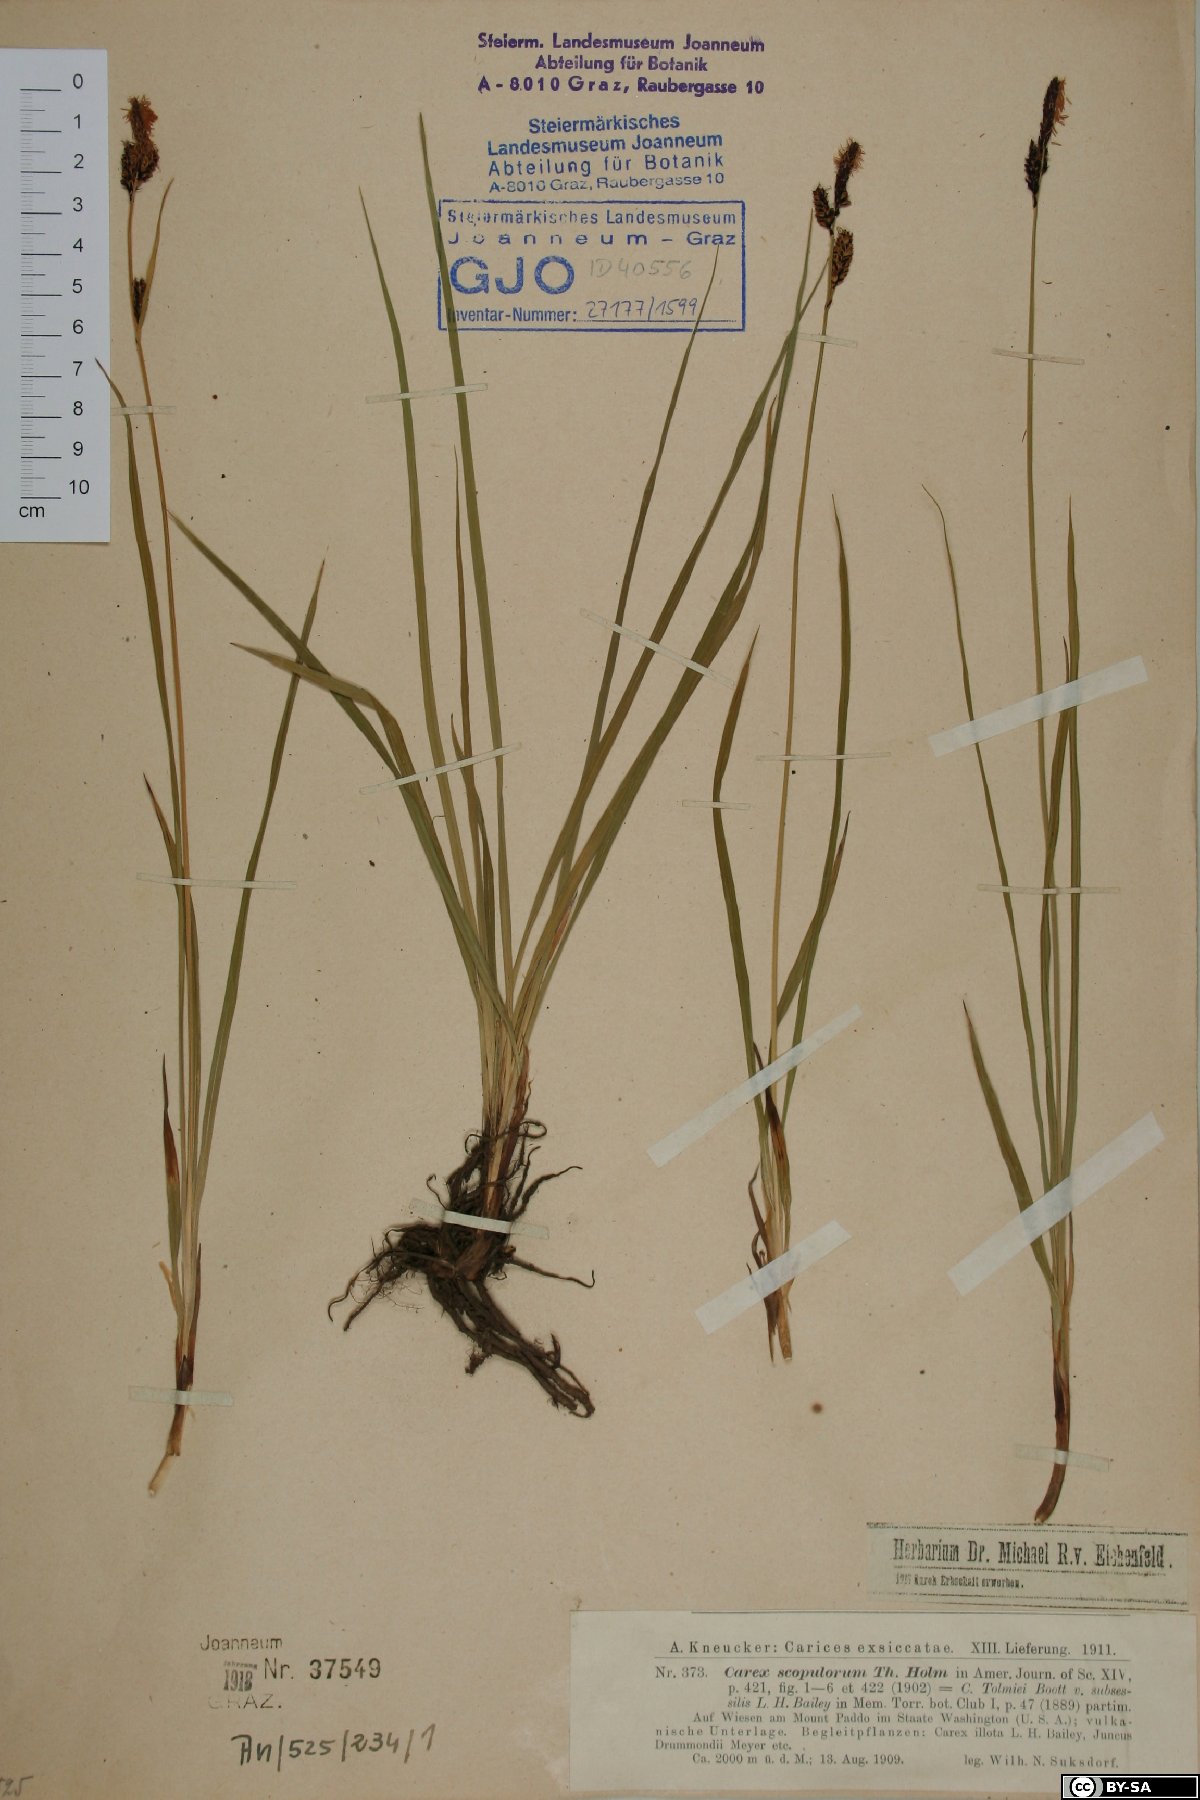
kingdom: Plantae
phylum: Tracheophyta
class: Liliopsida
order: Poales
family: Cyperaceae
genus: Carex
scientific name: Carex scopulorum
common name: Holm's rocky mountain sedge
